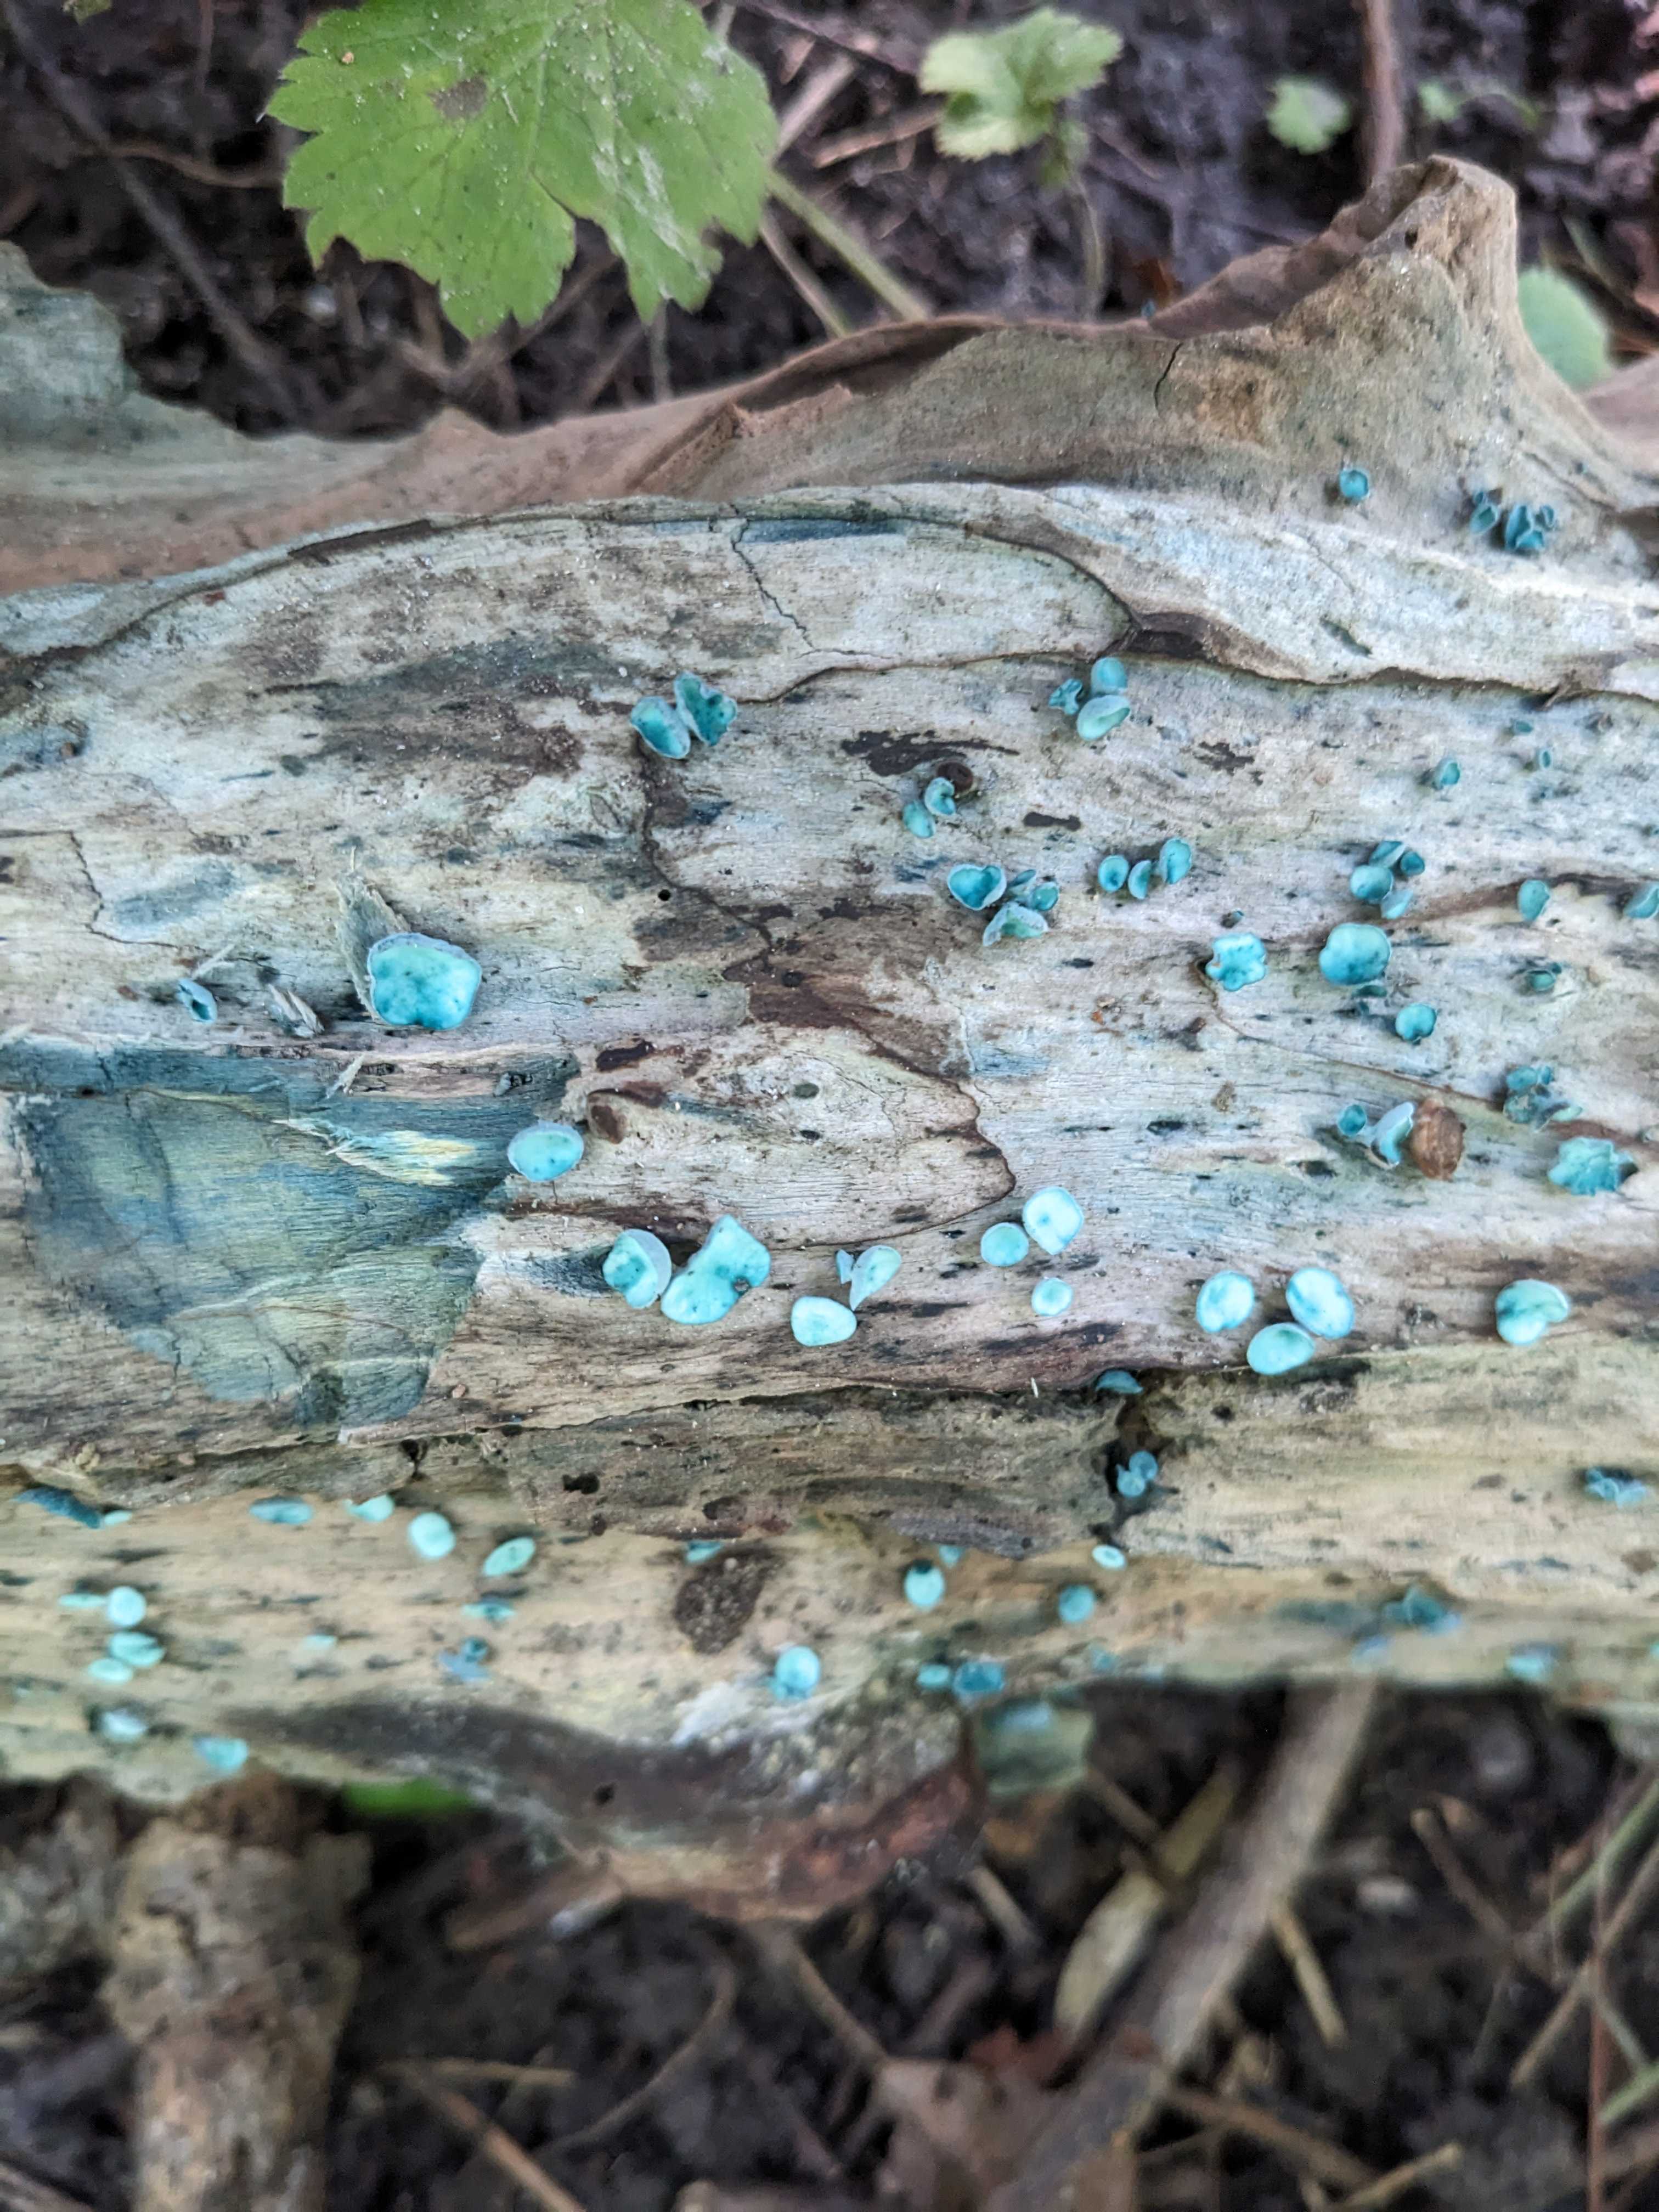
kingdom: Fungi
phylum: Ascomycota
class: Leotiomycetes
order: Helotiales
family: Chlorociboriaceae
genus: Chlorociboria
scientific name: Chlorociboria aeruginascens
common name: almindelig grønskive
